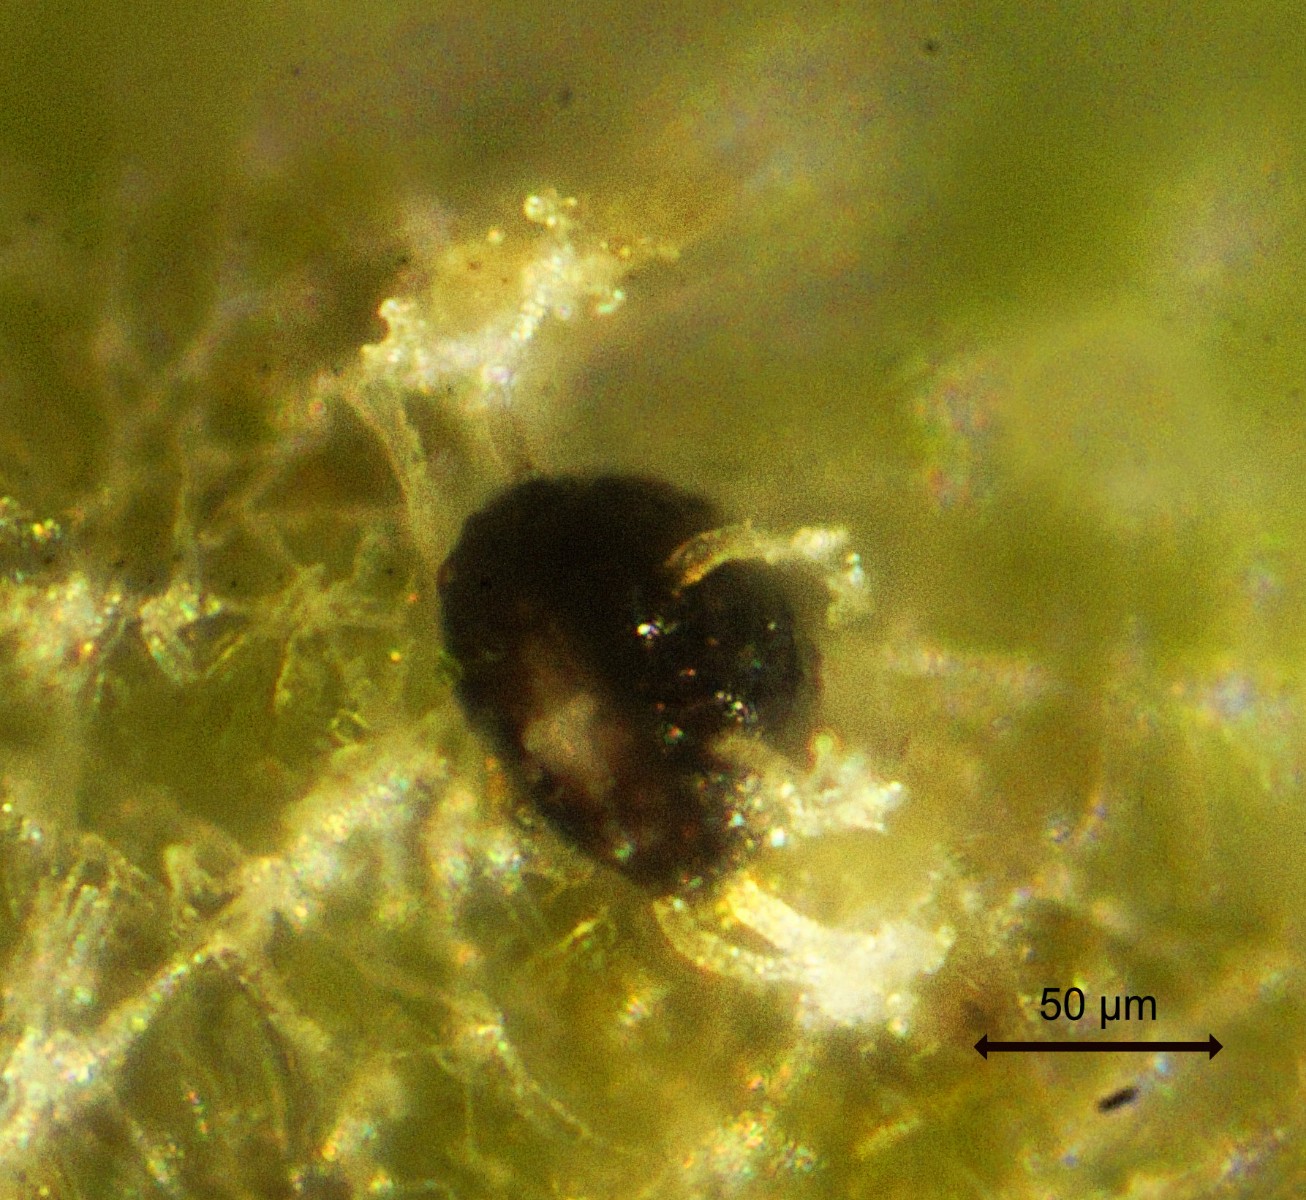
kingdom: Fungi
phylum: Ascomycota
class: Leotiomycetes
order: Helotiales
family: Erysiphaceae
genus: Erysiphe
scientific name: Erysiphe viburni
